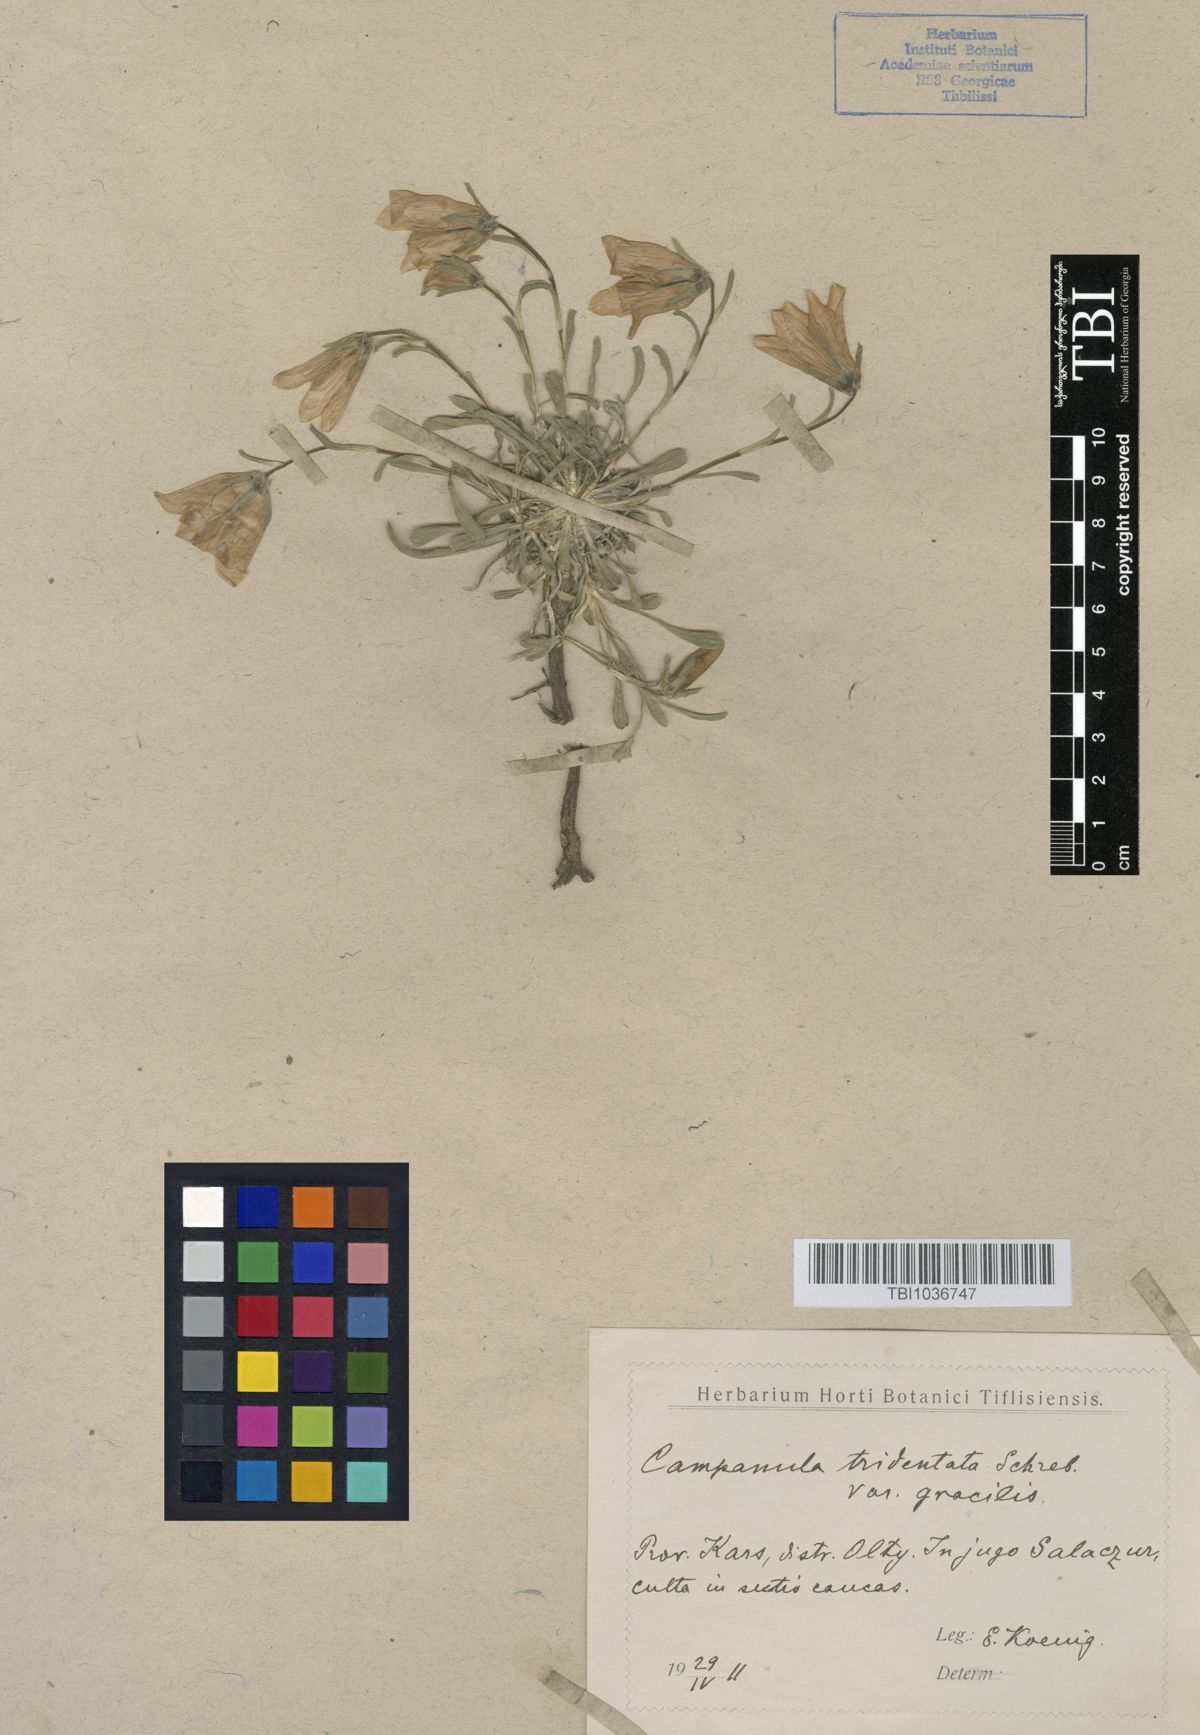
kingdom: Plantae
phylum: Tracheophyta
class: Magnoliopsida
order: Asterales
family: Campanulaceae
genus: Campanula
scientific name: Campanula tridentata
